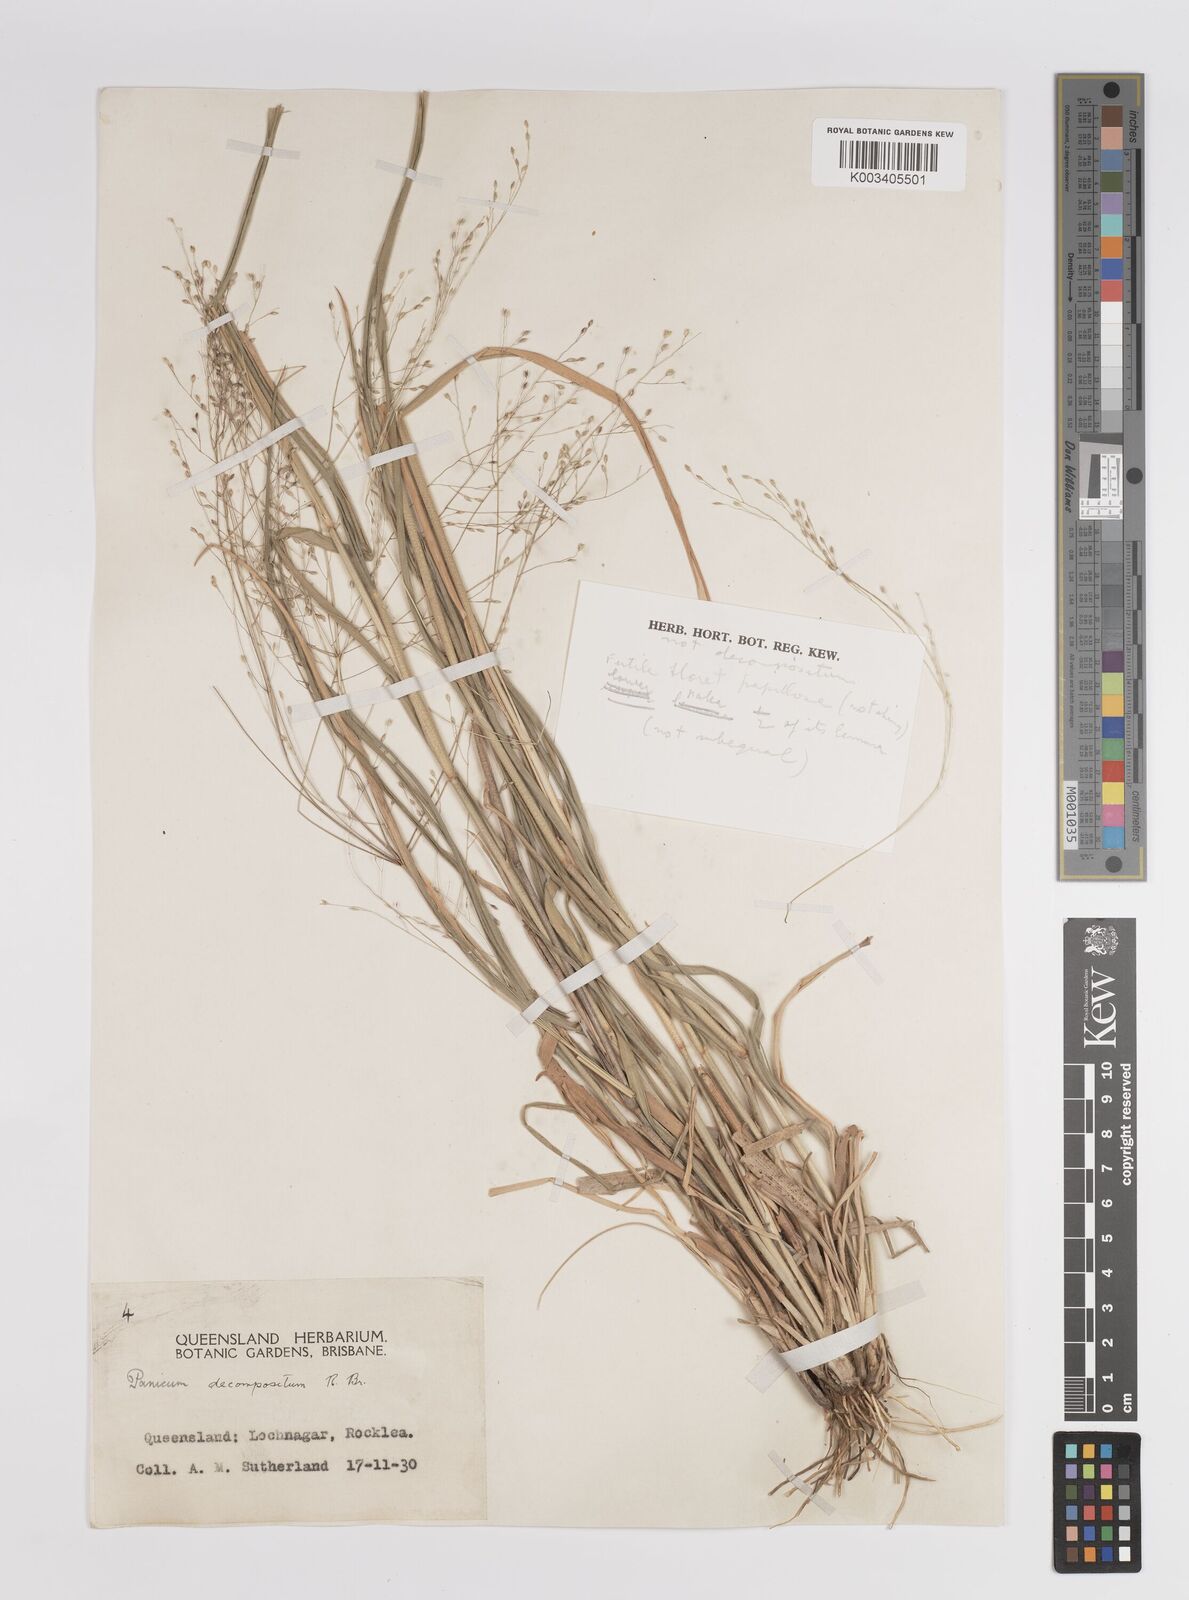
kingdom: Plantae
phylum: Tracheophyta
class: Liliopsida
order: Poales
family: Poaceae
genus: Panicum
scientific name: Panicum
